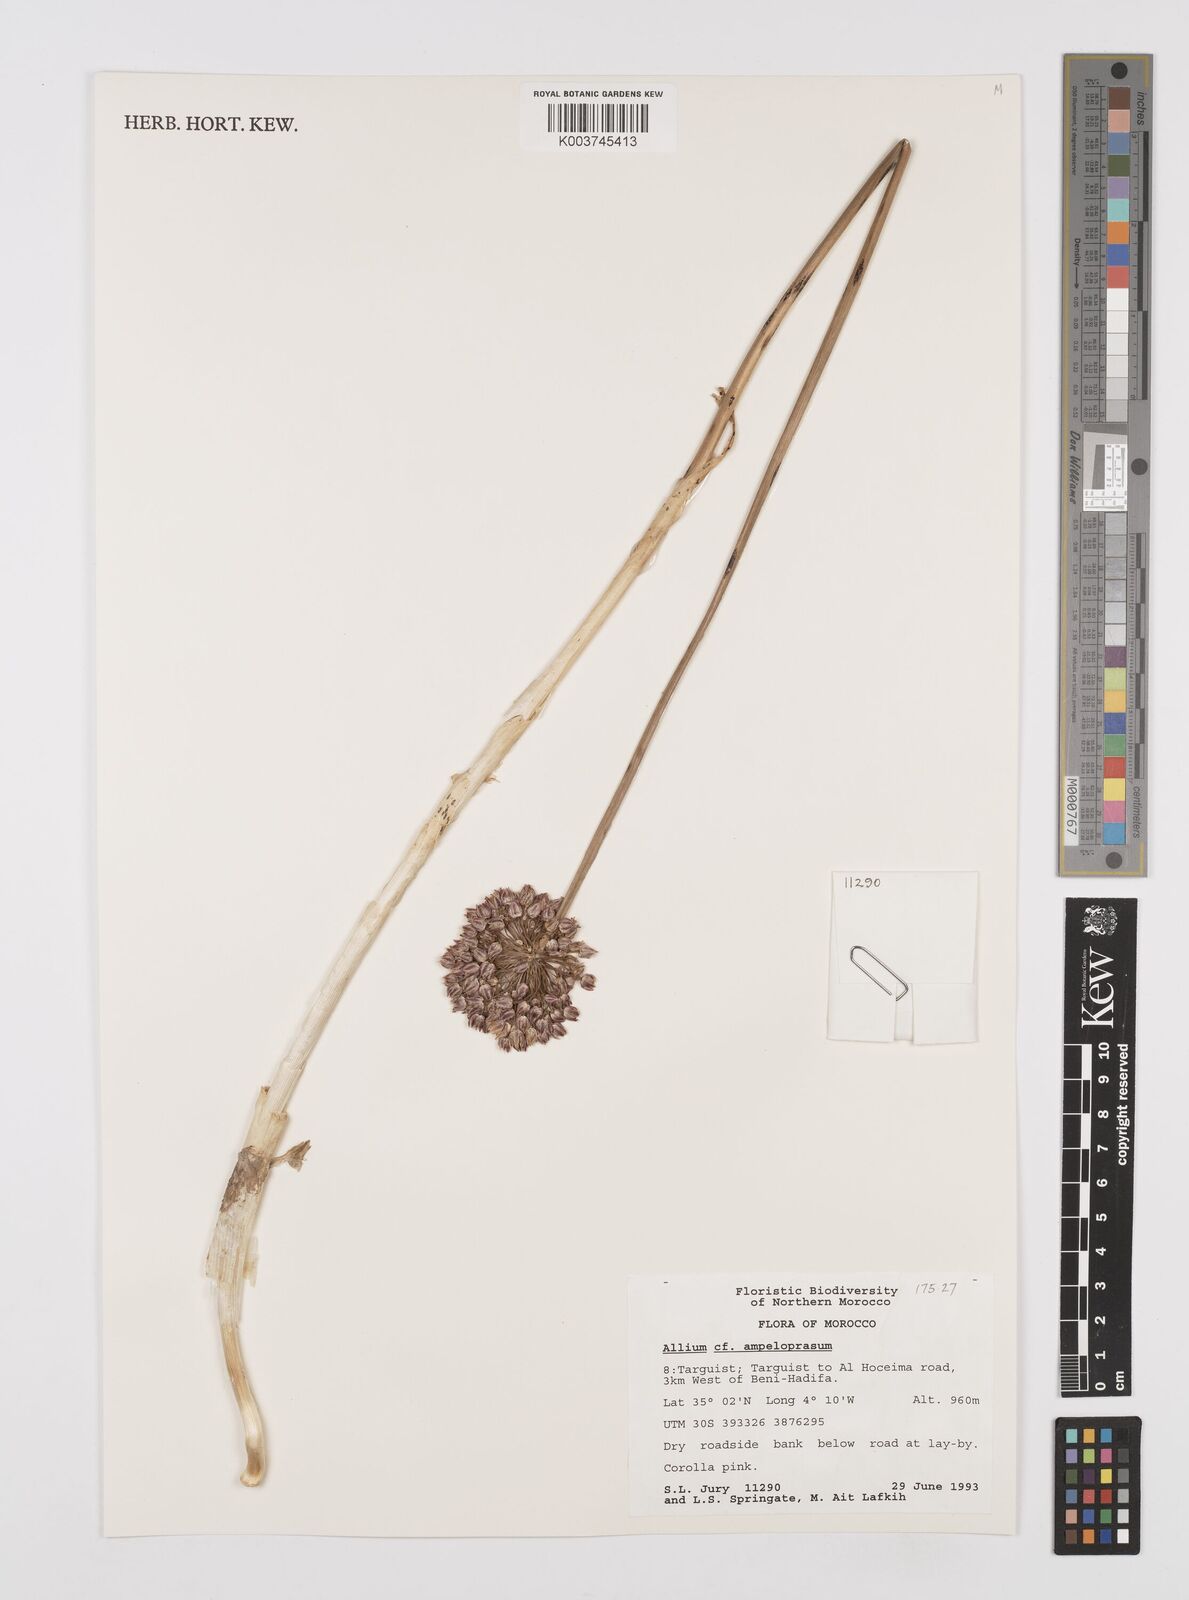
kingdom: Plantae
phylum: Tracheophyta
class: Liliopsida
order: Asparagales
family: Amaryllidaceae
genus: Allium
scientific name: Allium ampeloprasum
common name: Wild leek
